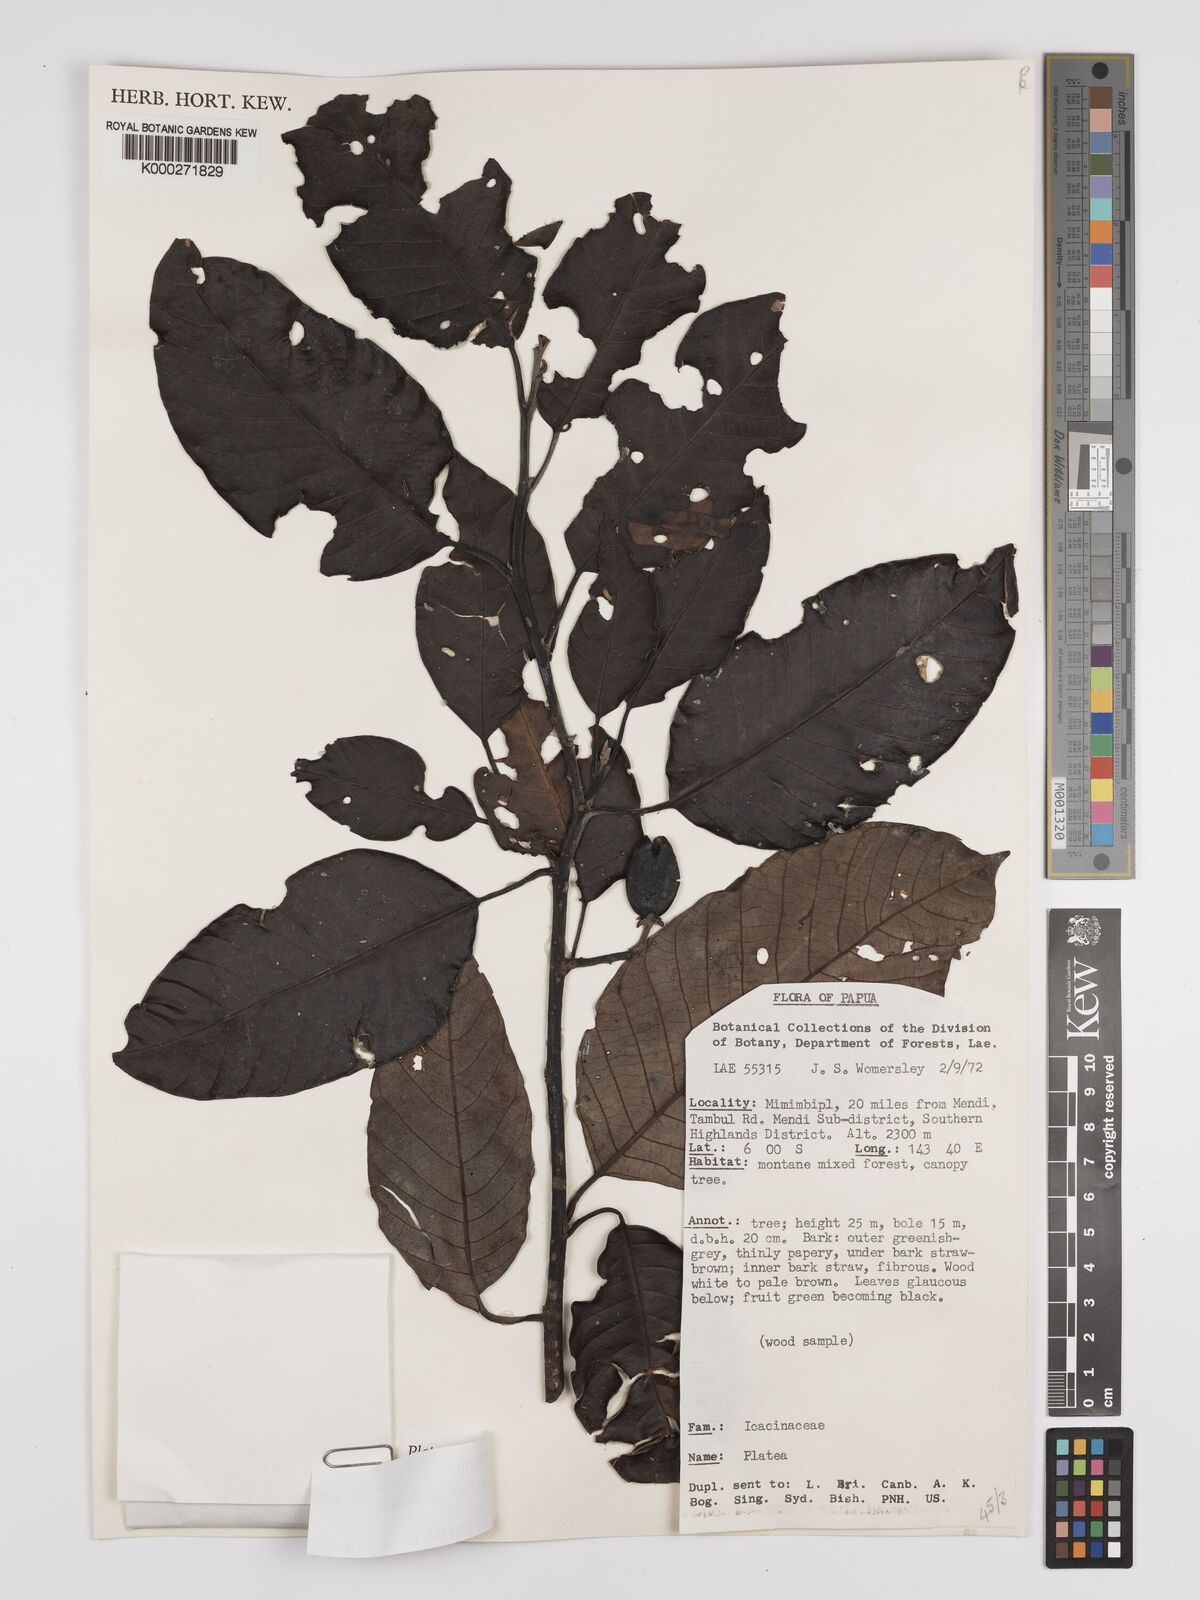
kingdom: Plantae
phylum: Tracheophyta
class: Magnoliopsida
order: Metteniusales
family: Metteniusaceae
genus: Platea
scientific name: Platea excelsa
